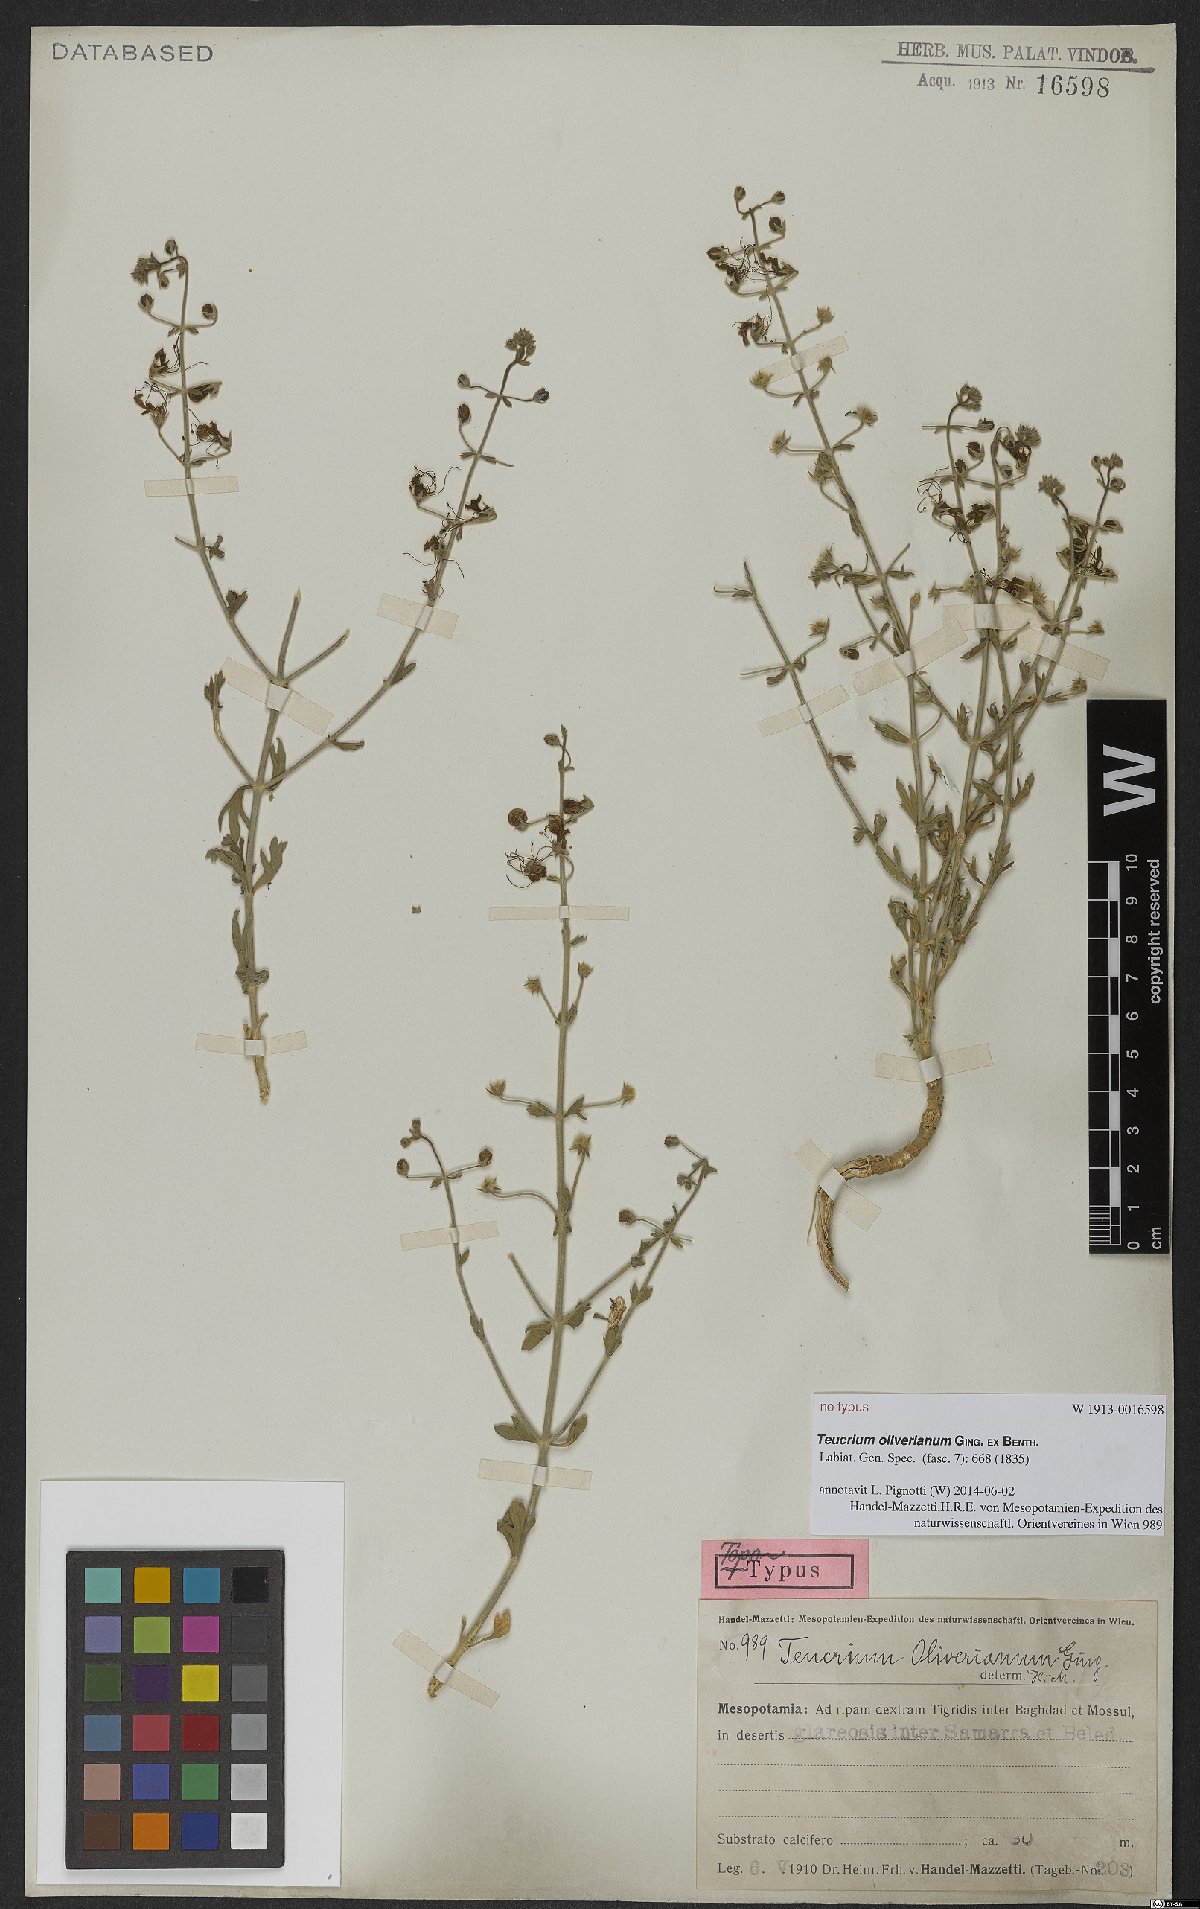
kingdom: Plantae
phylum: Tracheophyta
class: Magnoliopsida
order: Lamiales
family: Lamiaceae
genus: Teucrium
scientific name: Teucrium oliverianum
